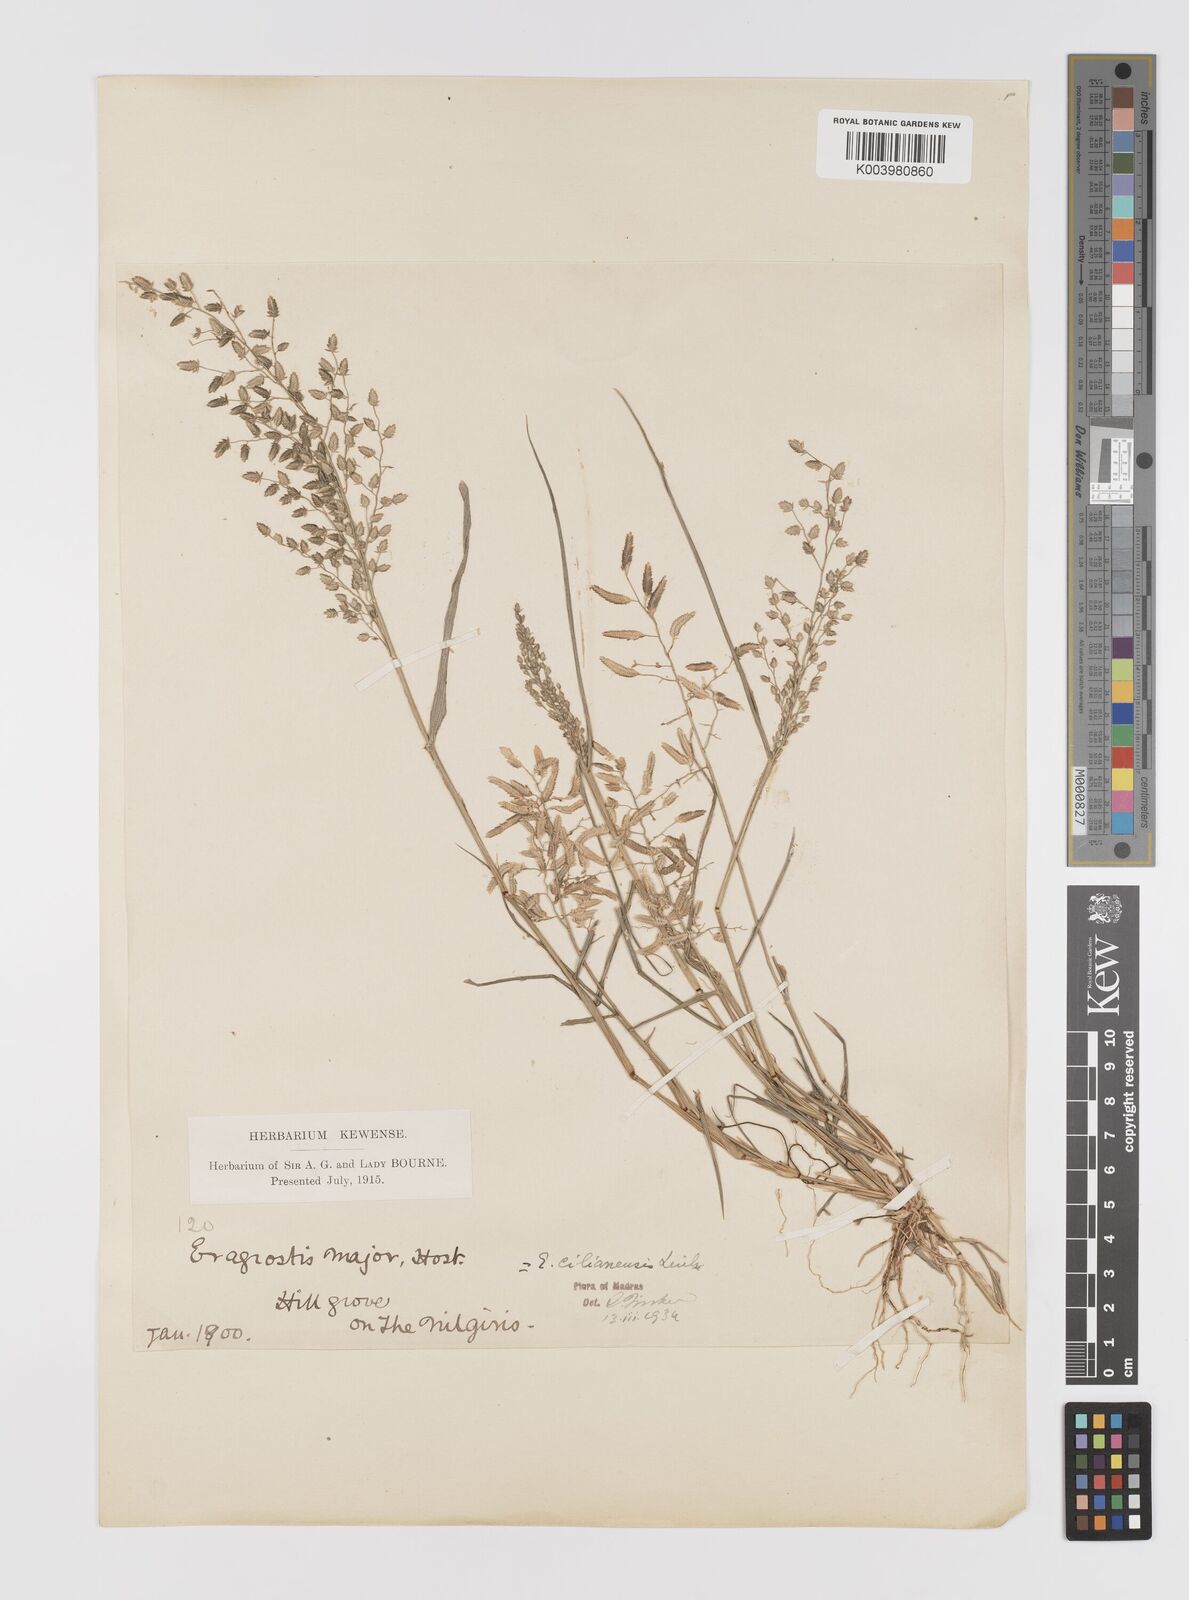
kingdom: Plantae
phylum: Tracheophyta
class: Liliopsida
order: Poales
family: Poaceae
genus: Eragrostis
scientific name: Eragrostis cilianensis
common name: Stinkgrass
